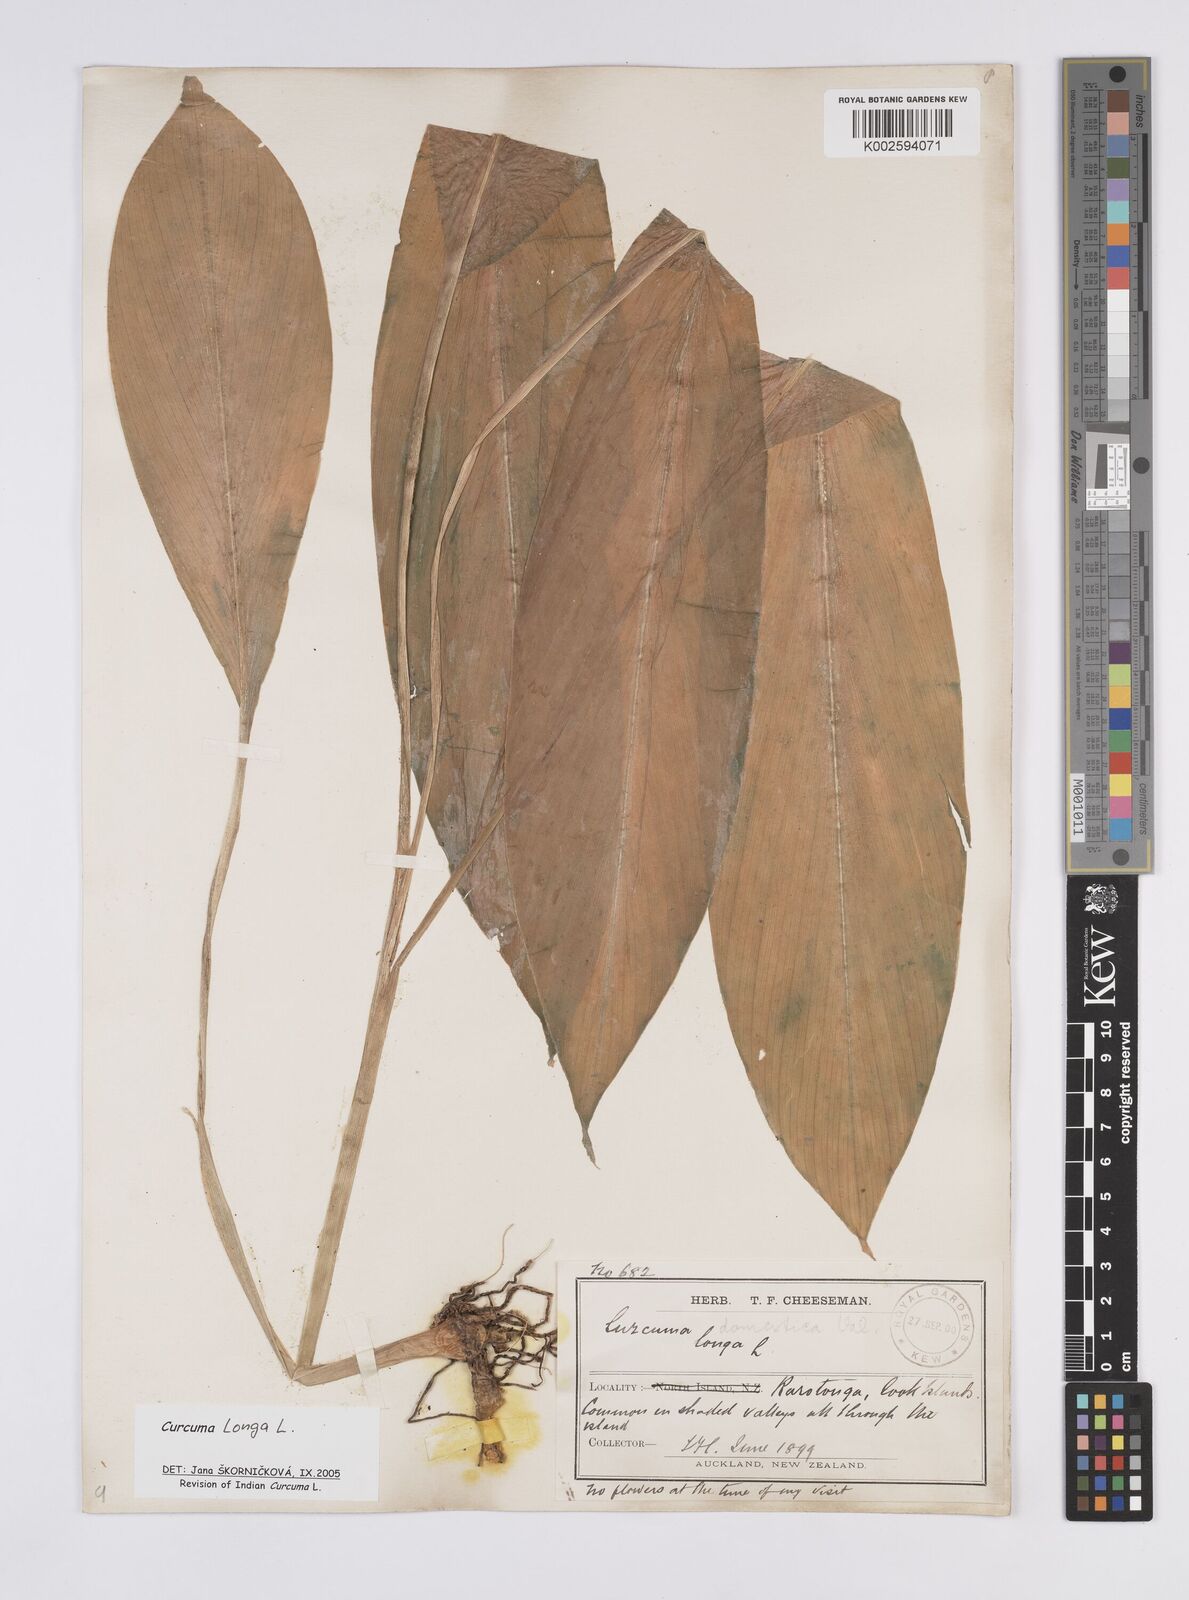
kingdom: Plantae
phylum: Tracheophyta
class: Liliopsida
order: Zingiberales
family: Zingiberaceae
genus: Curcuma
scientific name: Curcuma
